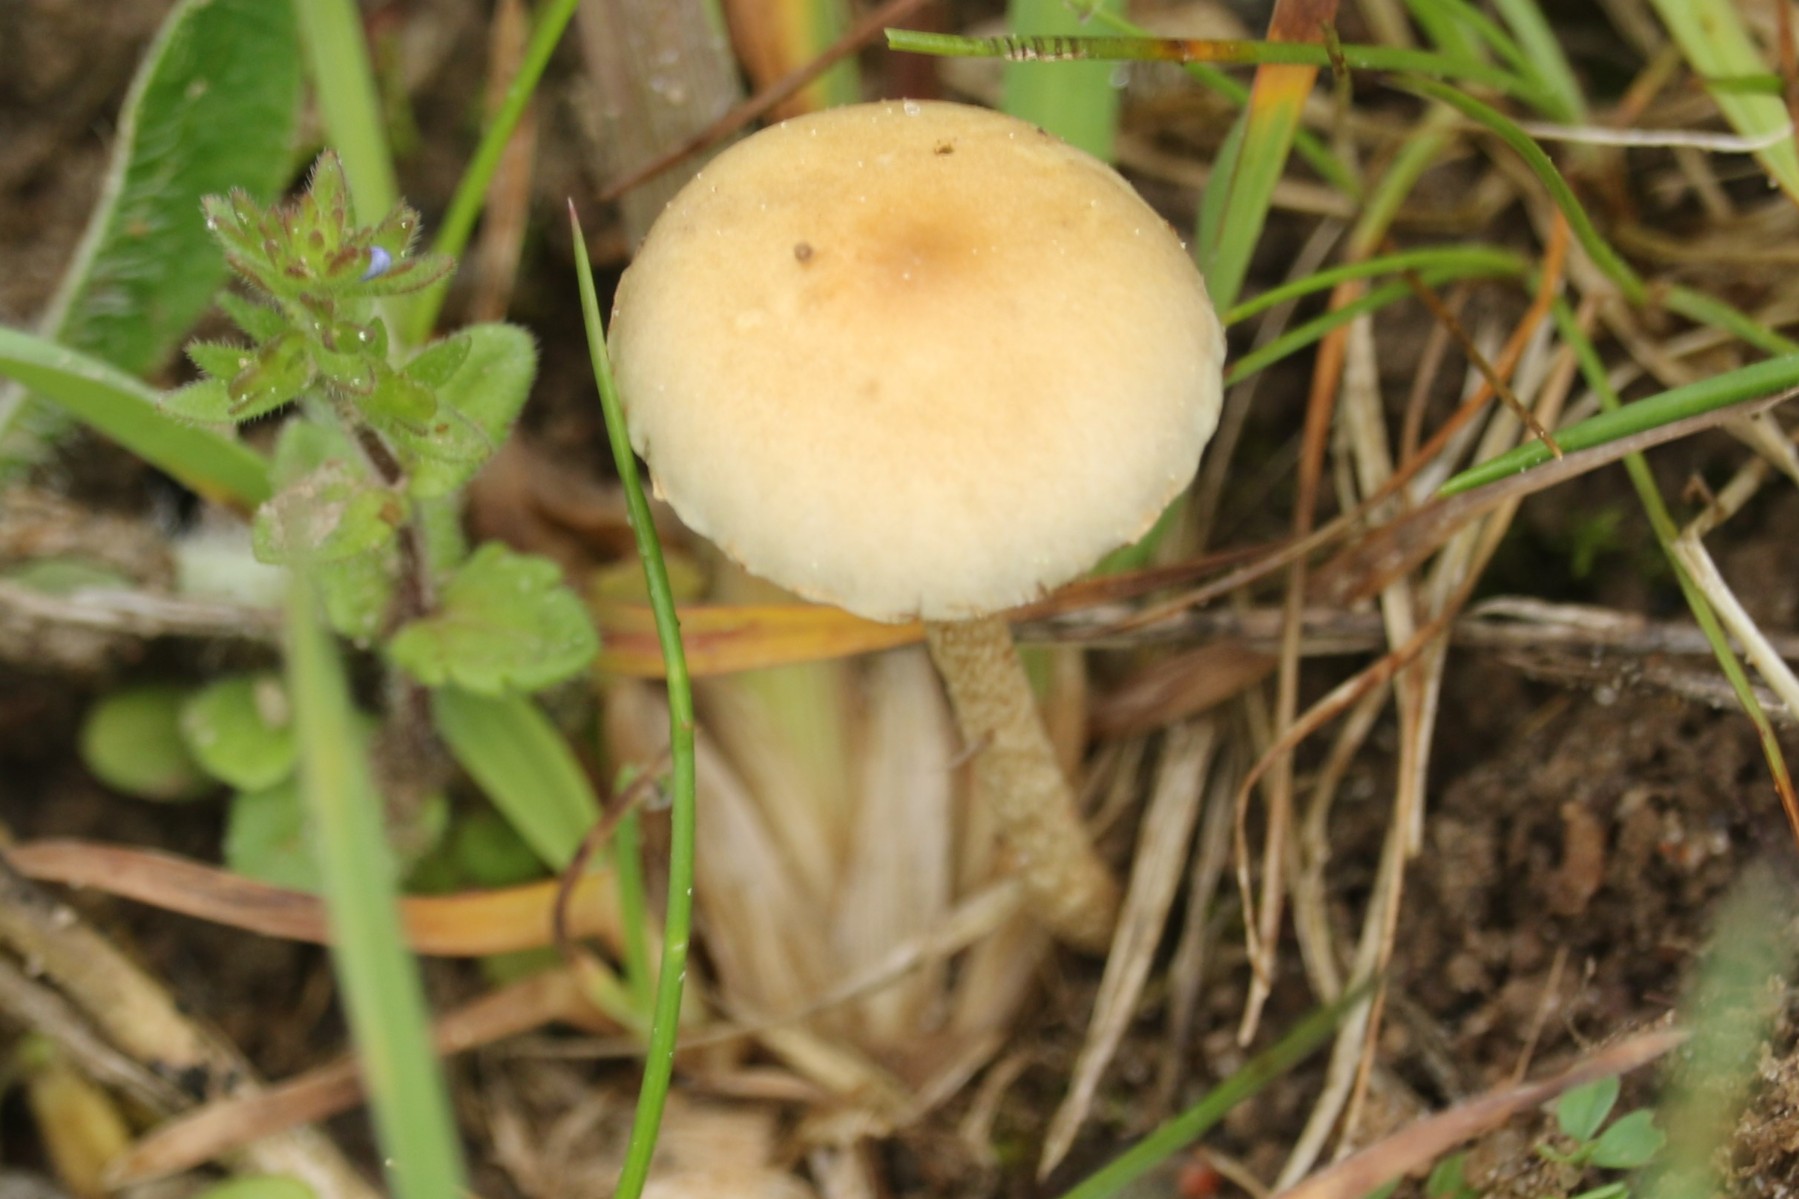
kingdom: Fungi
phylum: Basidiomycota
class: Agaricomycetes
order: Agaricales
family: Strophariaceae
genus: Agrocybe
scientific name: Agrocybe pediades
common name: almindelig agerhat
